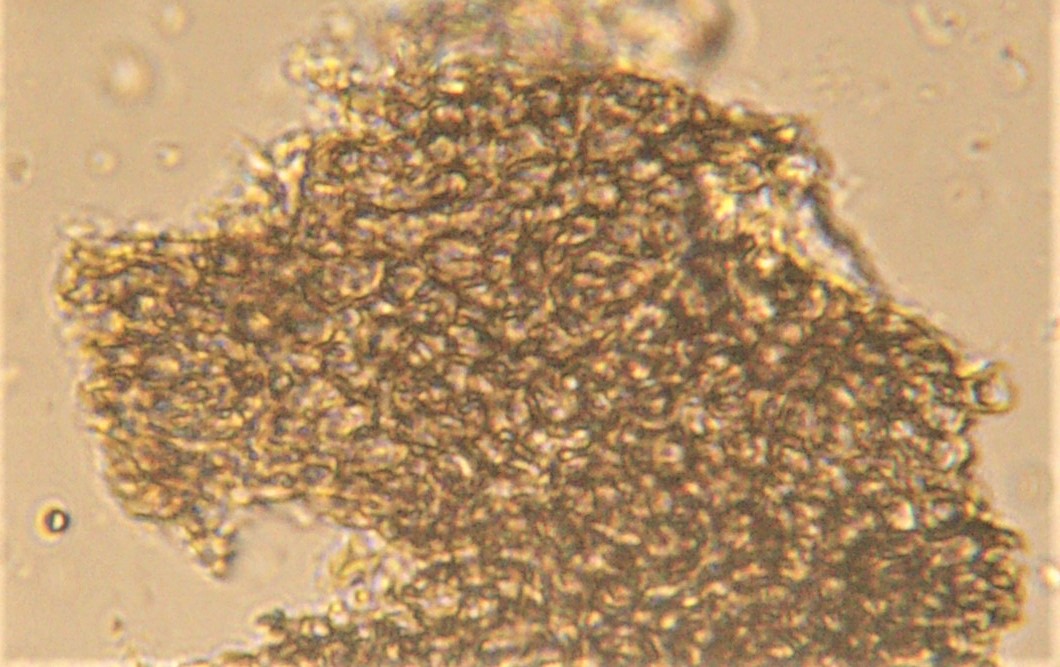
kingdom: Fungi
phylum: Ascomycota
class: Leotiomycetes
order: Helotiales
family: Heterosphaeriaceae
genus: Heterosphaeria
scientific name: Heterosphaeria
